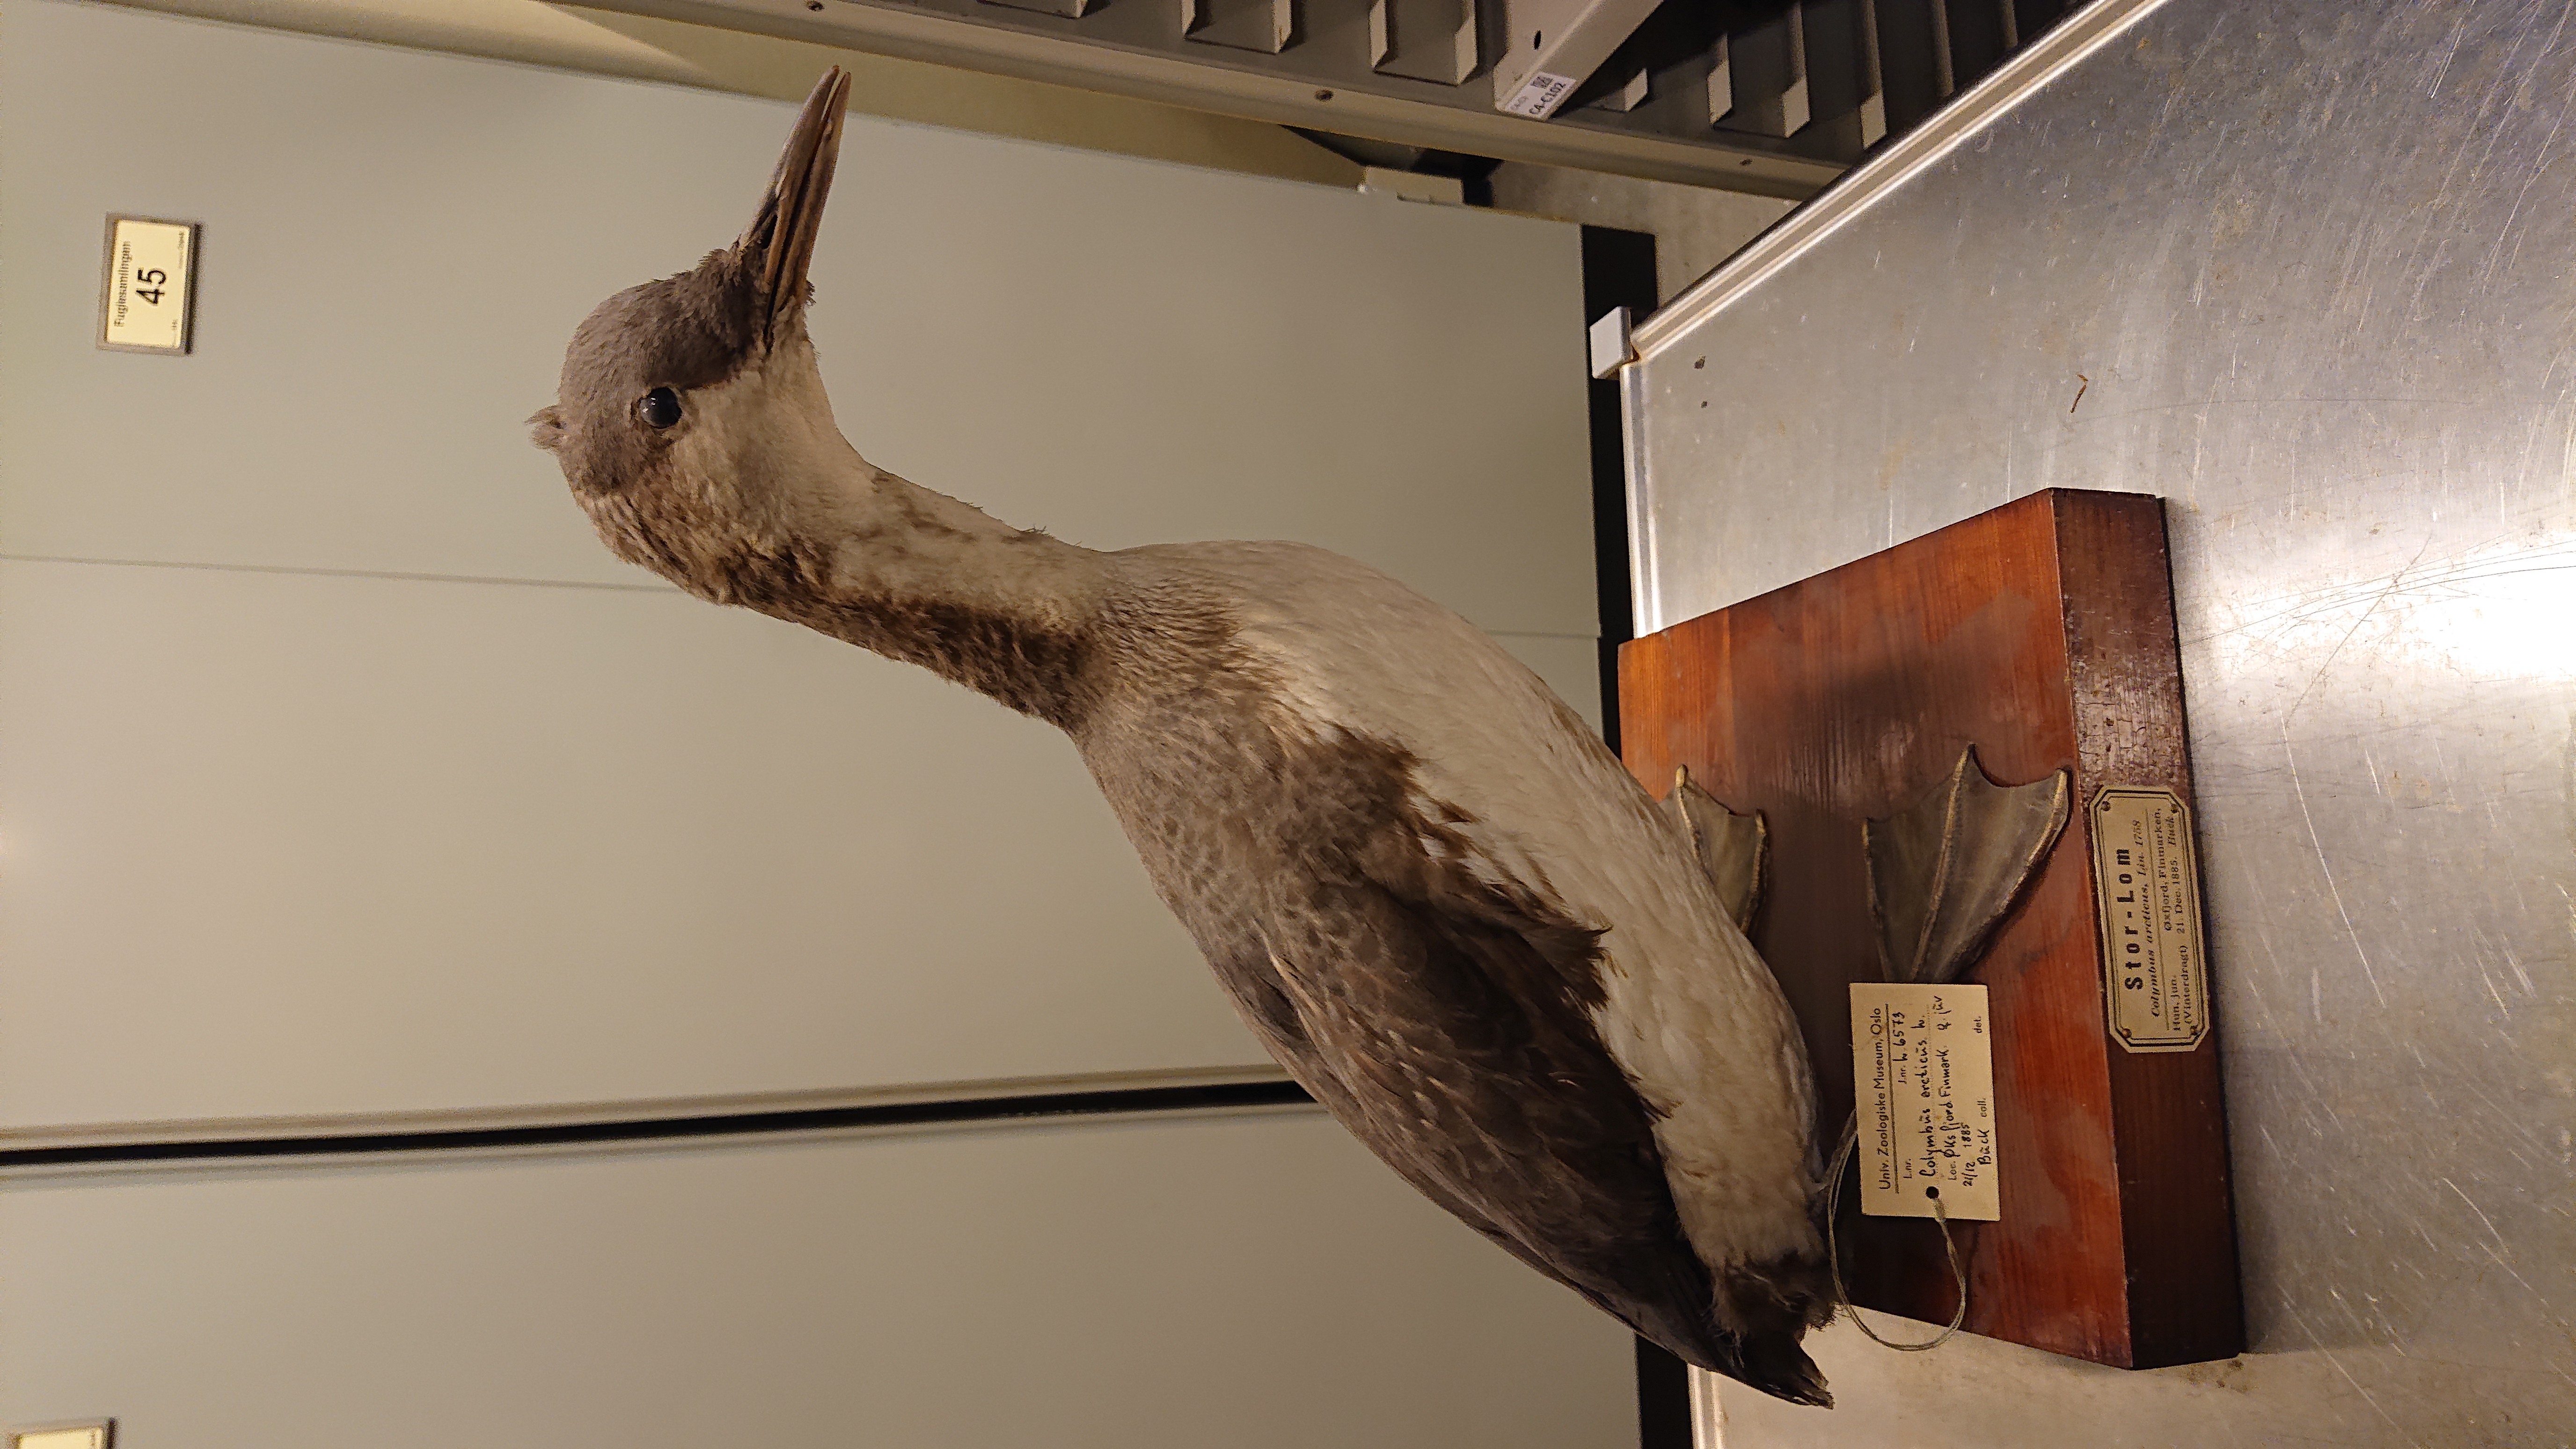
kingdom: Animalia
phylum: Chordata
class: Aves
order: Gaviiformes
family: Gaviidae
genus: Gavia
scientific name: Gavia arctica
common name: Black-throated loon
